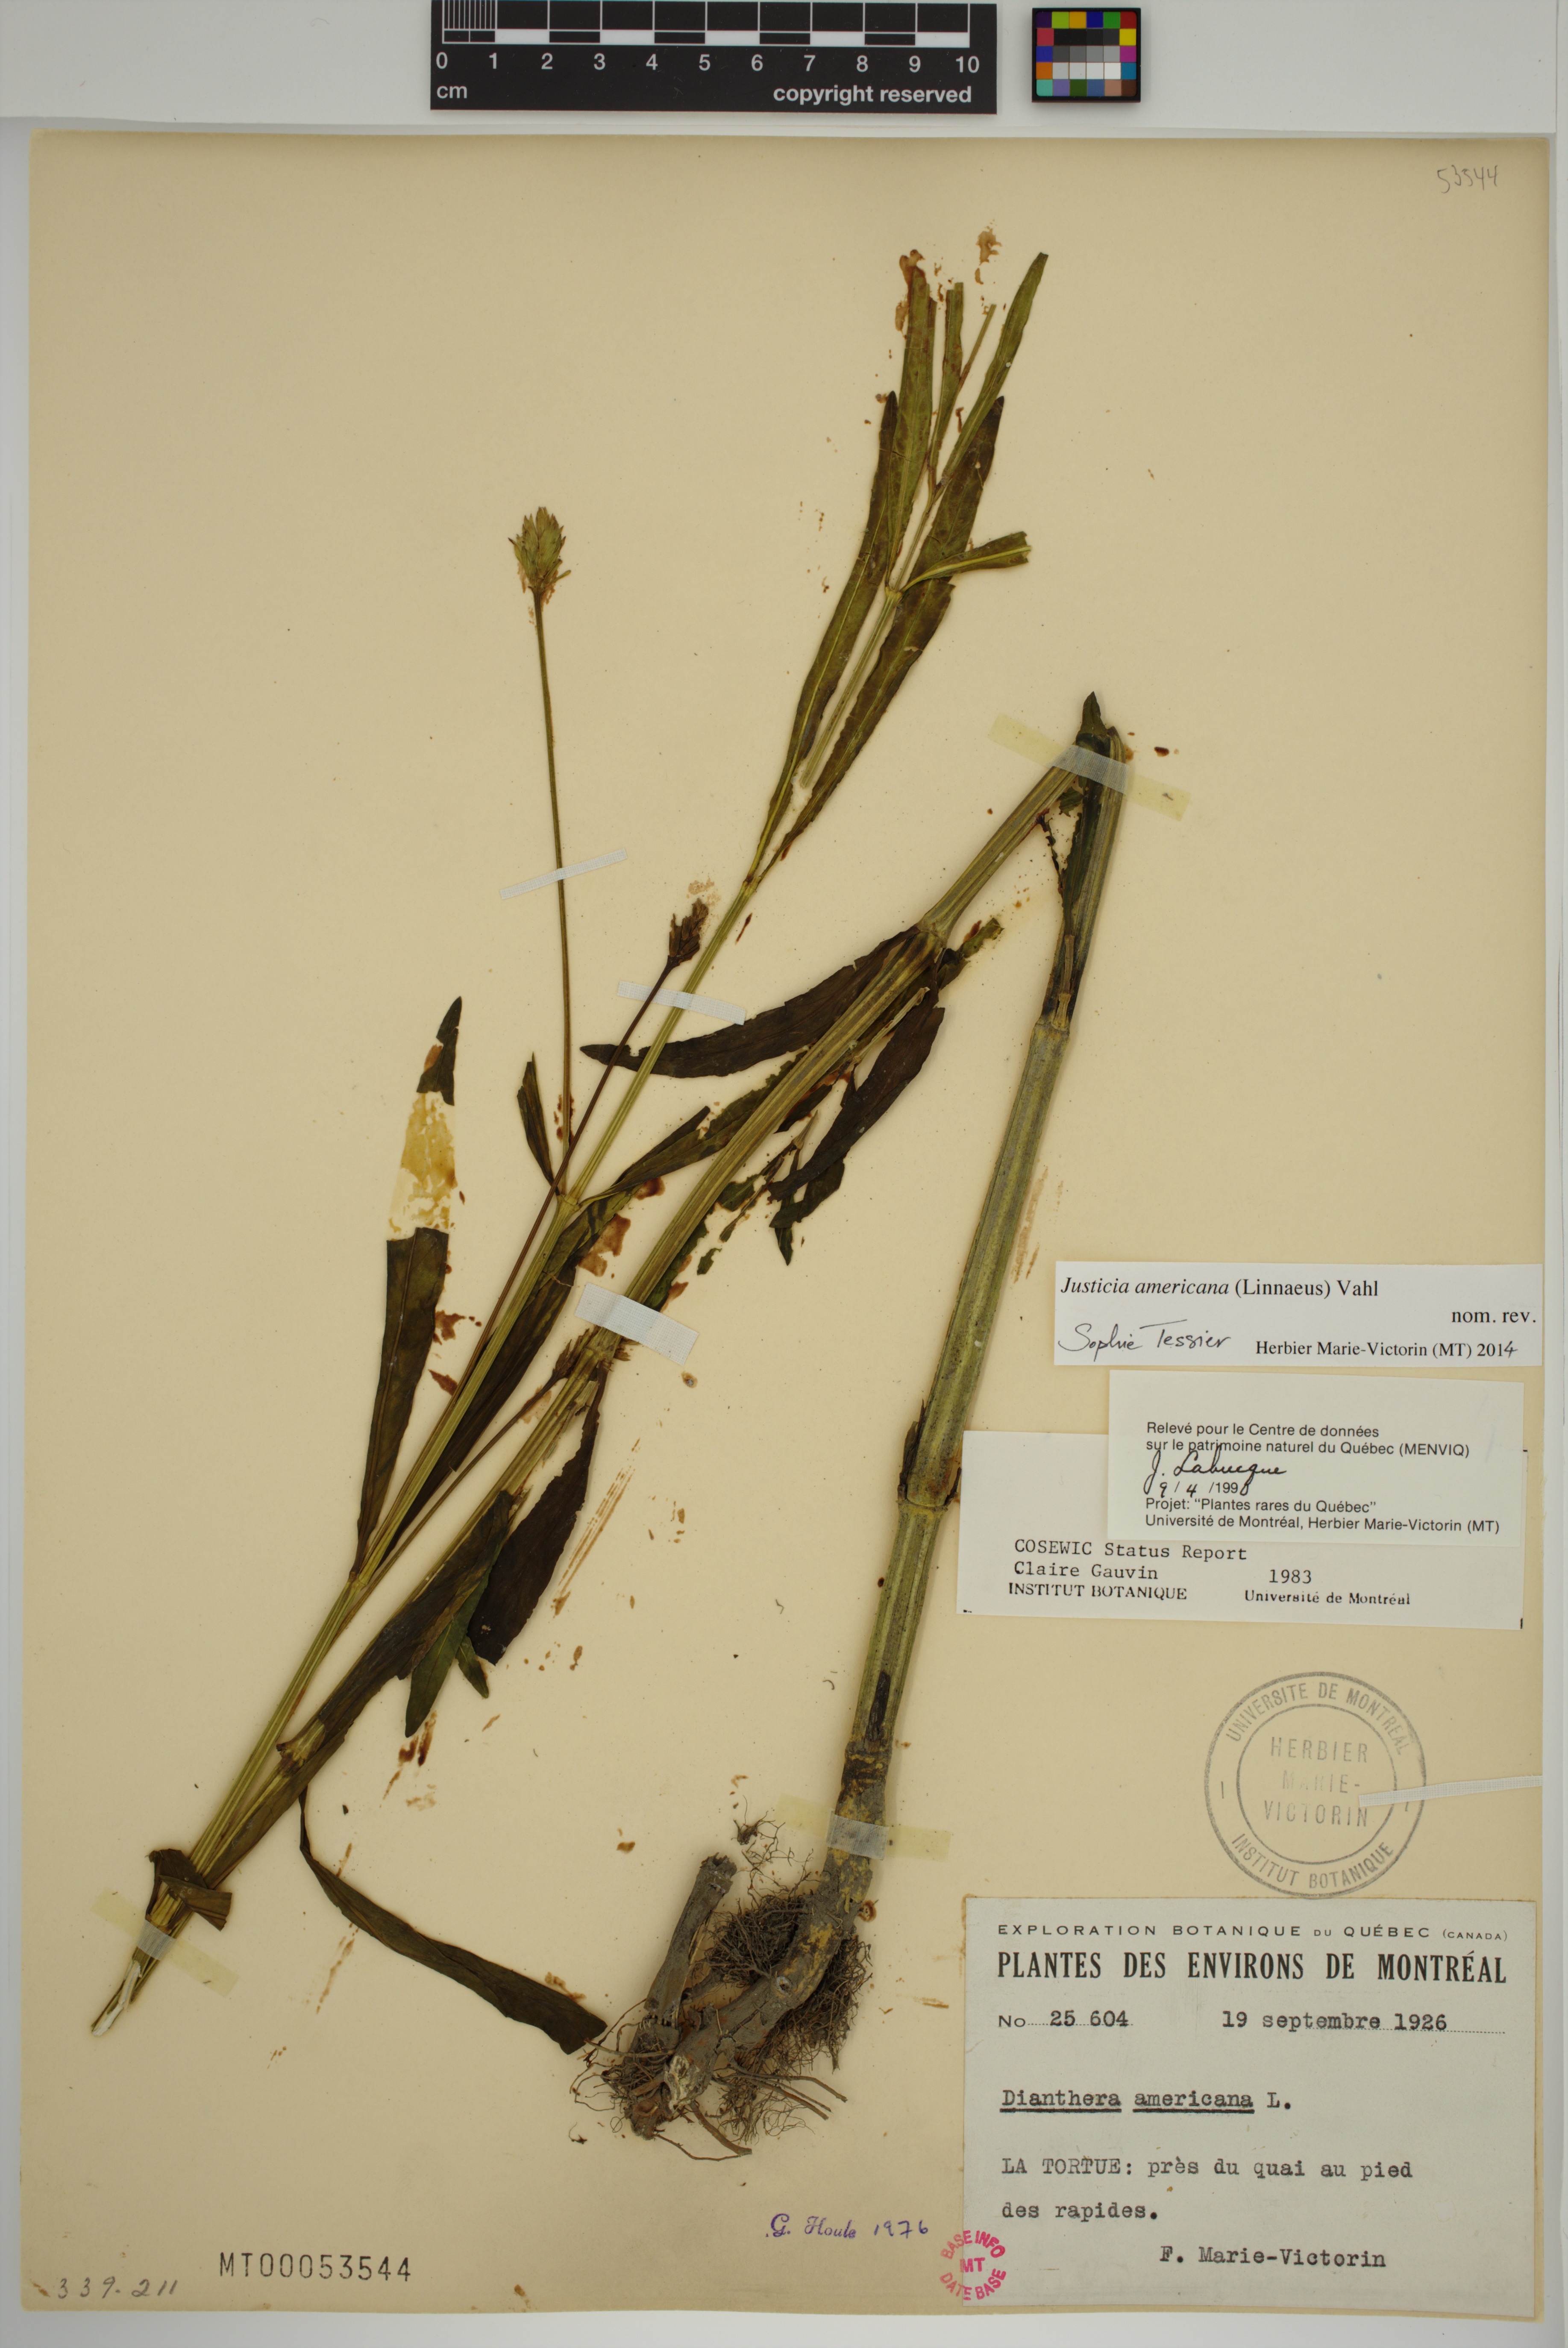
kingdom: Plantae
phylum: Tracheophyta
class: Magnoliopsida
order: Lamiales
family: Acanthaceae
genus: Dianthera
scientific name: Dianthera americana
